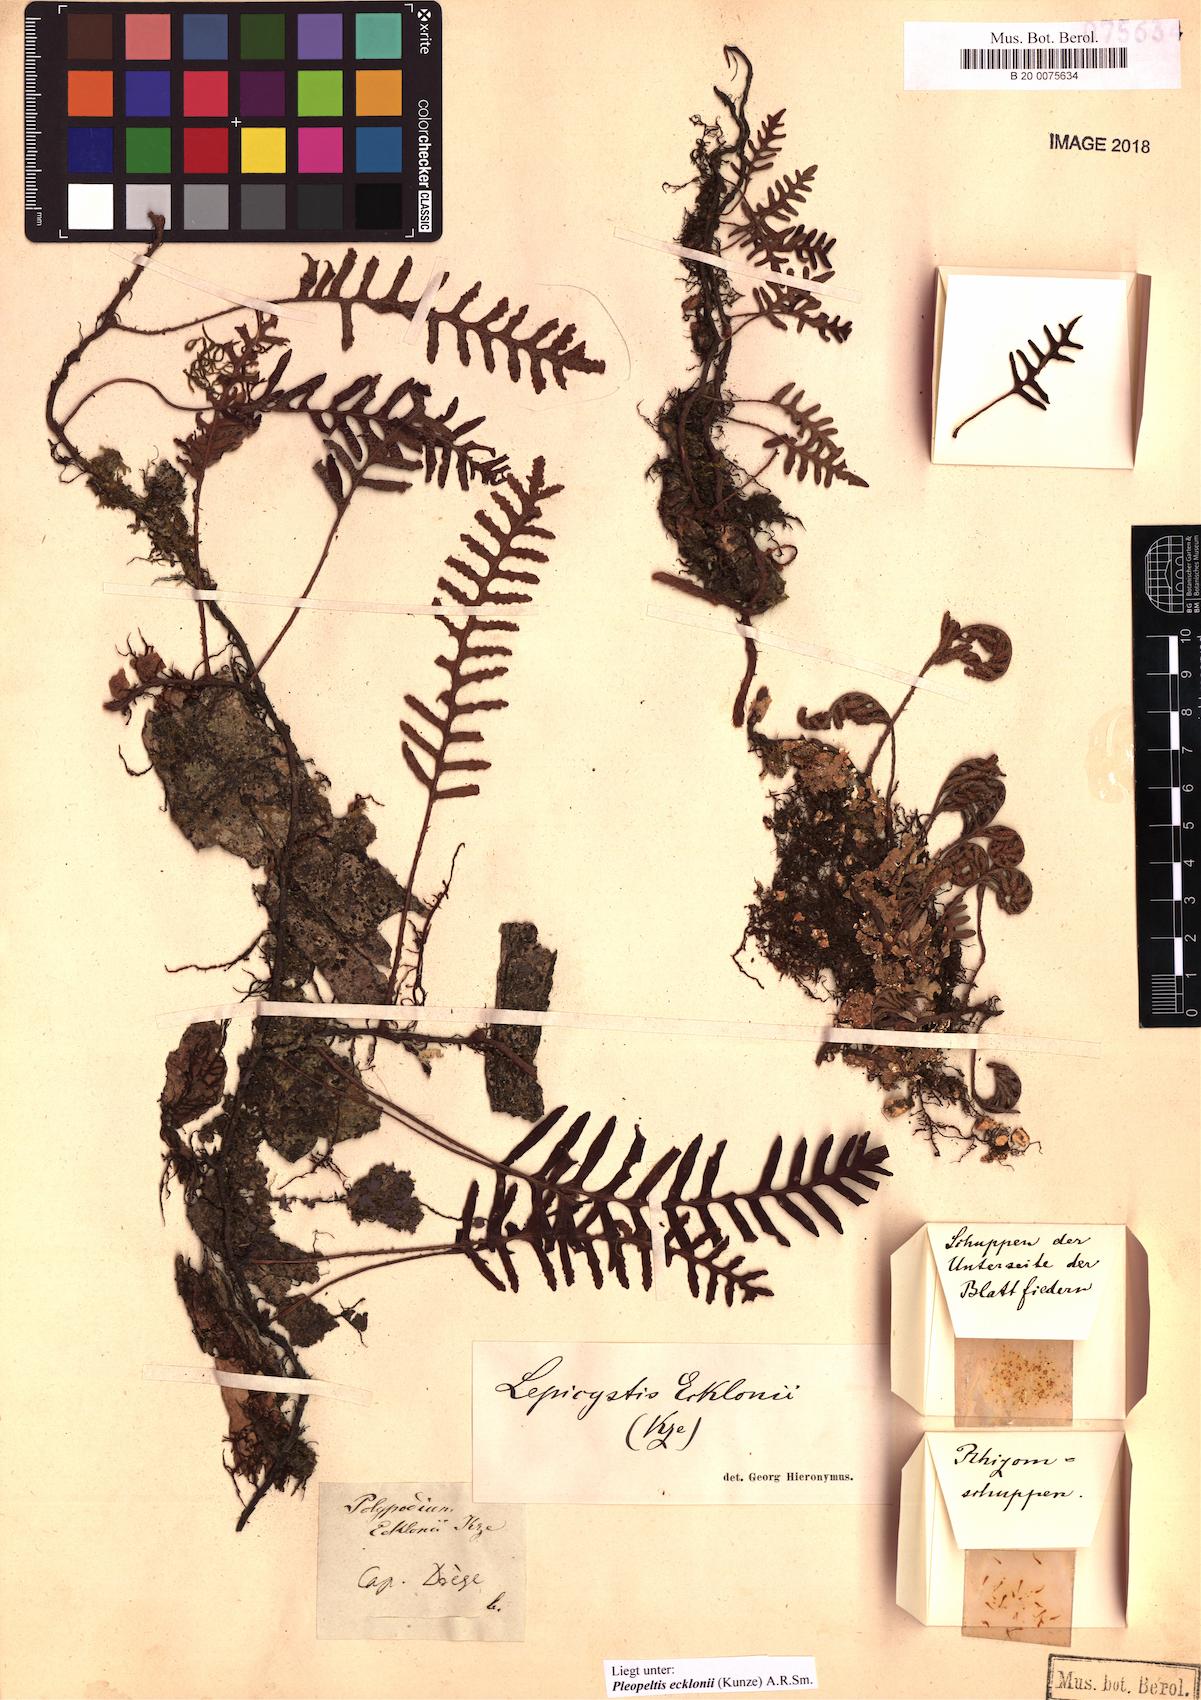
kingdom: Plantae
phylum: Tracheophyta
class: Polypodiopsida
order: Polypodiales
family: Polypodiaceae
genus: Pleopeltis
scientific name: Pleopeltis ecklonii
